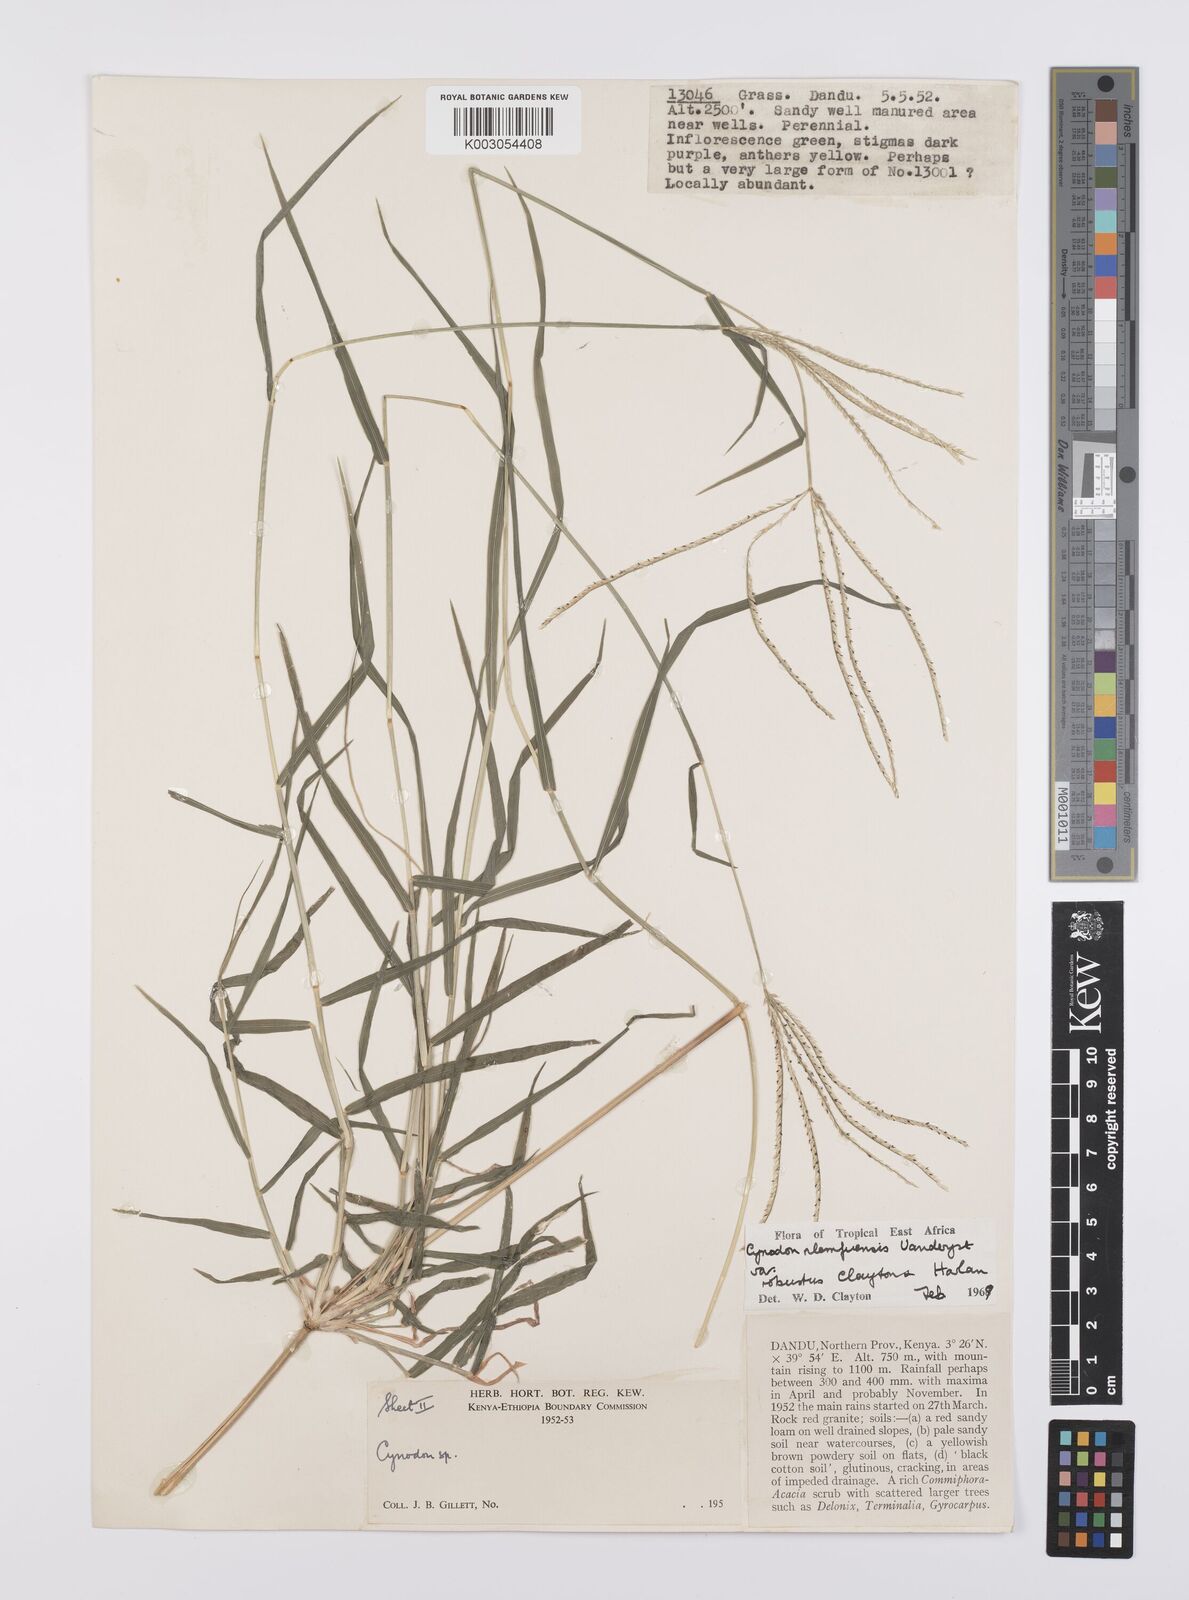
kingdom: Plantae
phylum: Tracheophyta
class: Liliopsida
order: Poales
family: Poaceae
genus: Cynodon
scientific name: Cynodon nlemfuensis
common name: African bermudagrass
